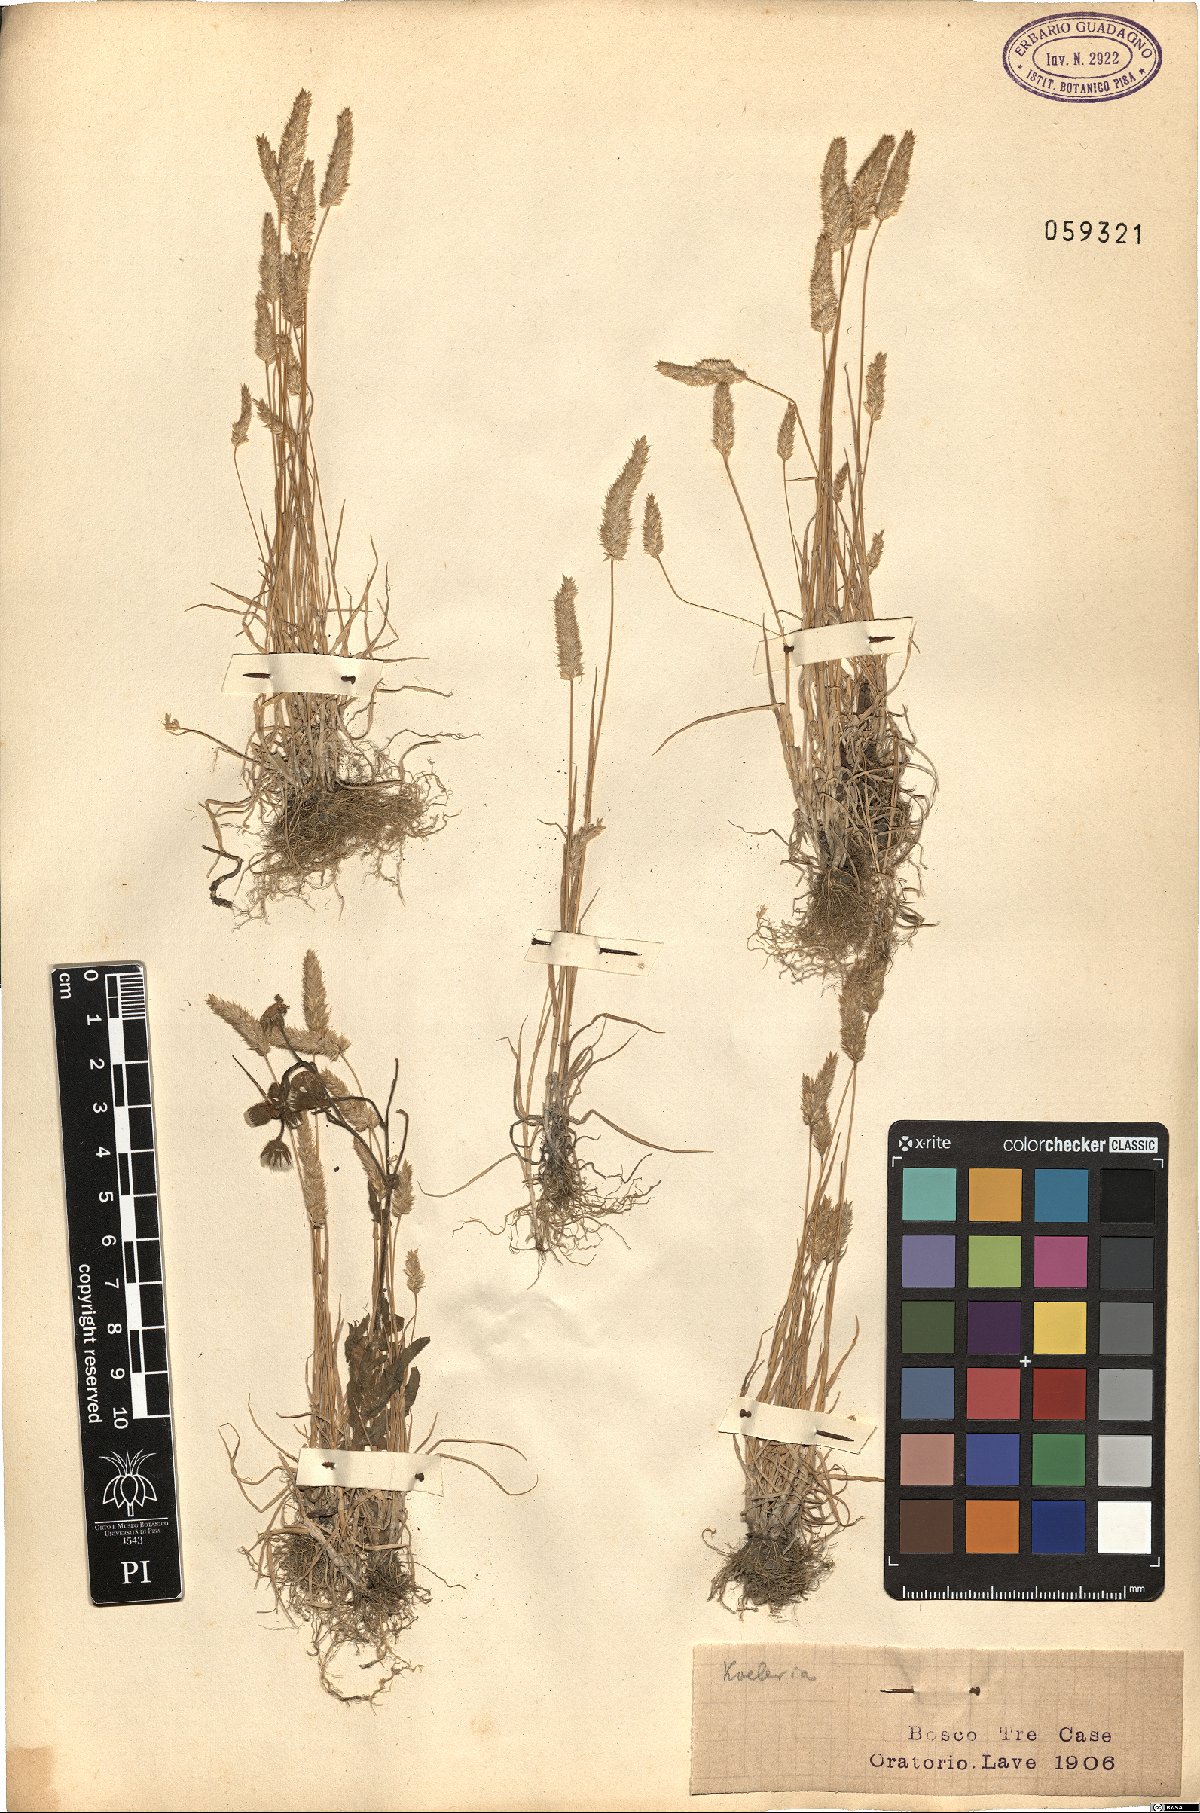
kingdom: Plantae
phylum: Tracheophyta
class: Liliopsida
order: Poales
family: Poaceae
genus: Koeleria
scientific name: Koeleria
